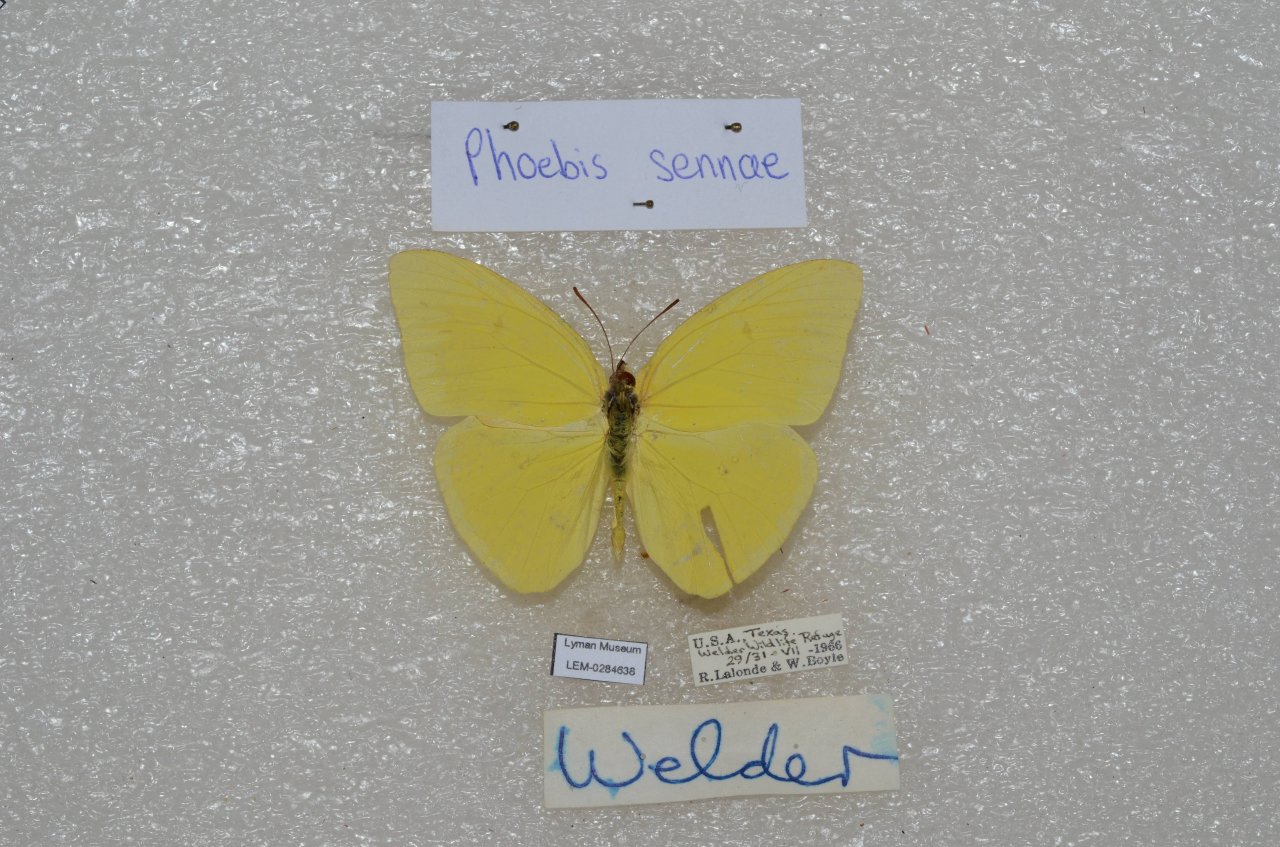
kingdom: Animalia
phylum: Arthropoda
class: Insecta
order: Lepidoptera
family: Pieridae
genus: Phoebis
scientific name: Phoebis sennae
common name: Cloudless Sulphur
